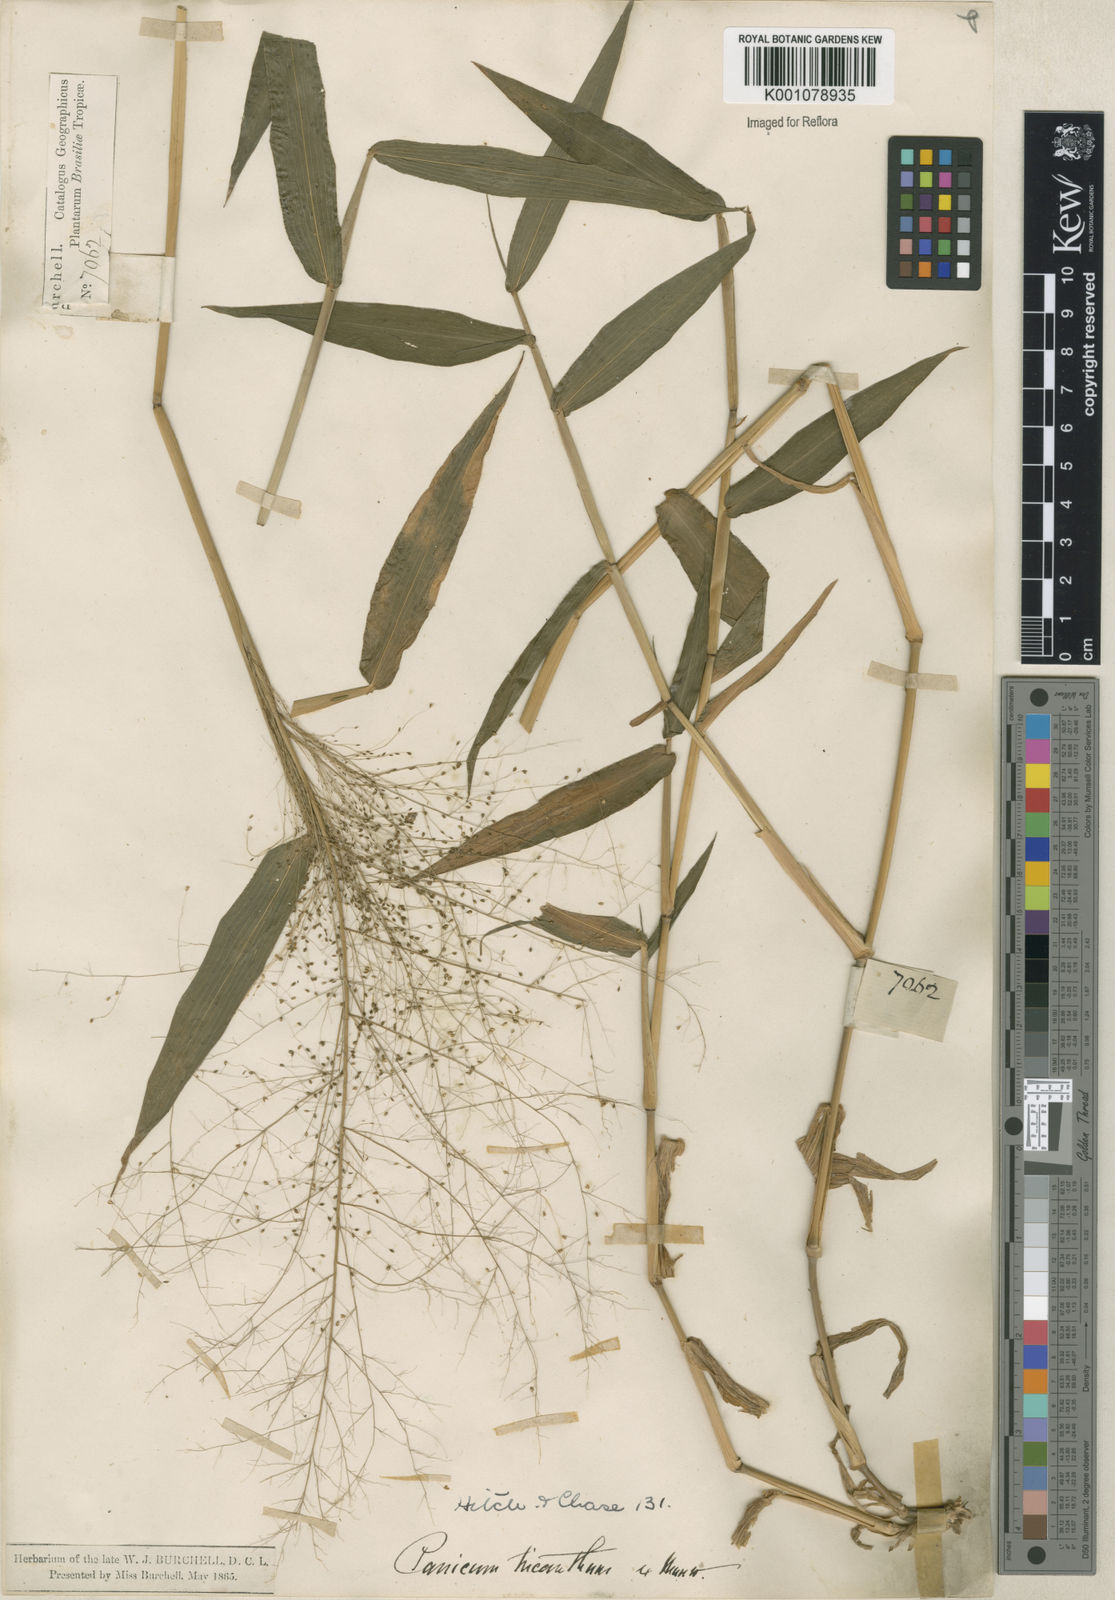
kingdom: Plantae
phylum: Tracheophyta
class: Liliopsida
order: Poales
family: Poaceae
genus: Panicum
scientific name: Panicum
